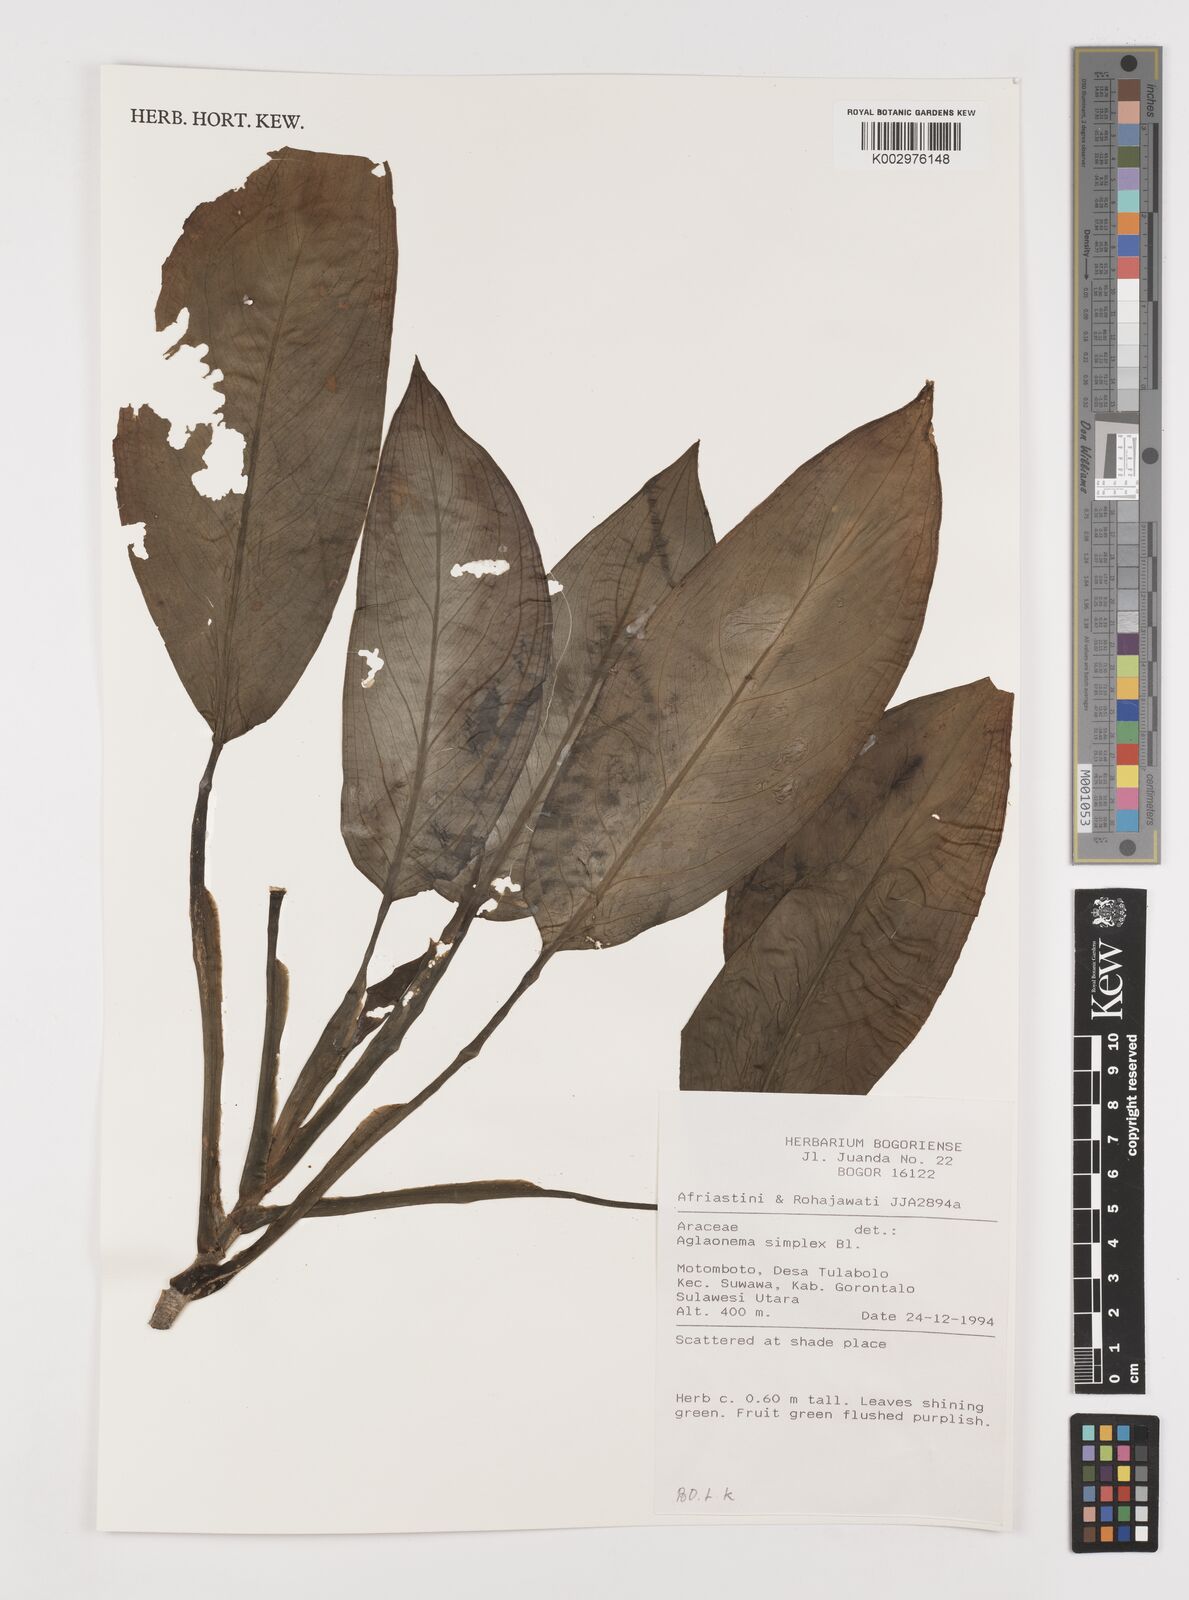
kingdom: Plantae
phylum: Tracheophyta
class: Liliopsida
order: Alismatales
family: Araceae
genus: Aglaonema
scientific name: Aglaonema simplex
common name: Malayan-sword
